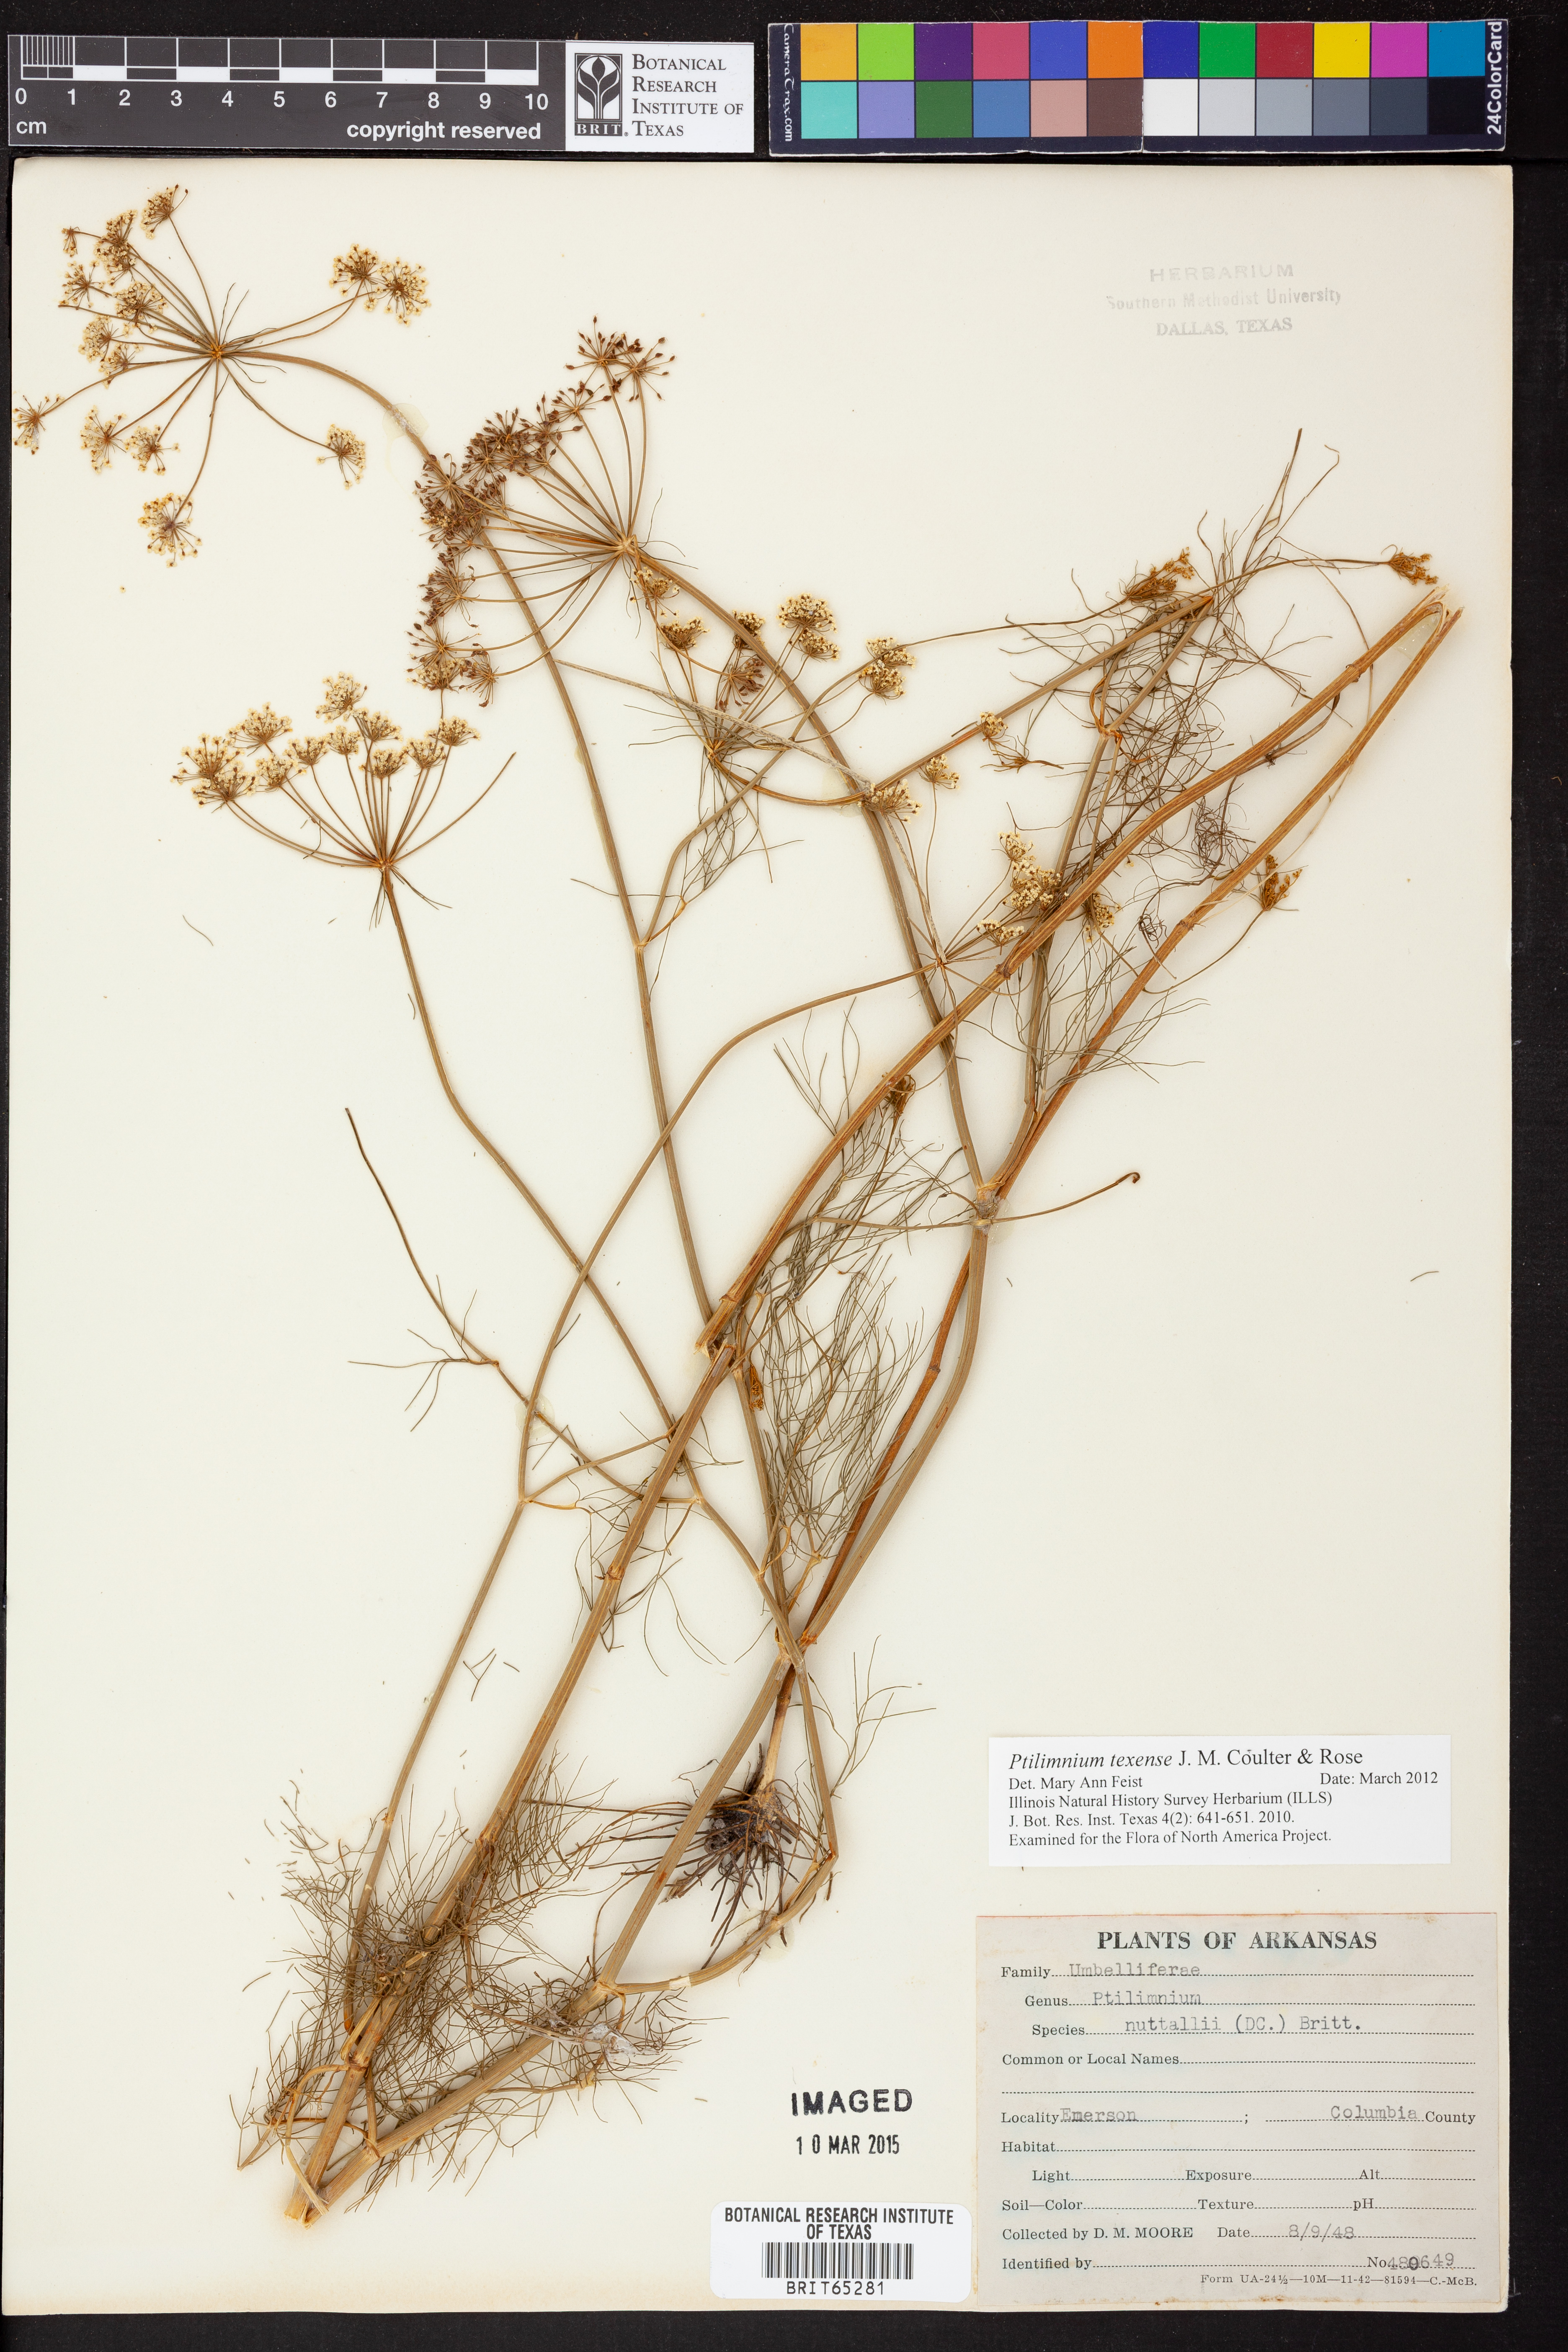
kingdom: Plantae
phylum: Tracheophyta
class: Magnoliopsida
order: Apiales
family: Apiaceae
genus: Ptilimnium
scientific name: Ptilimnium texense
